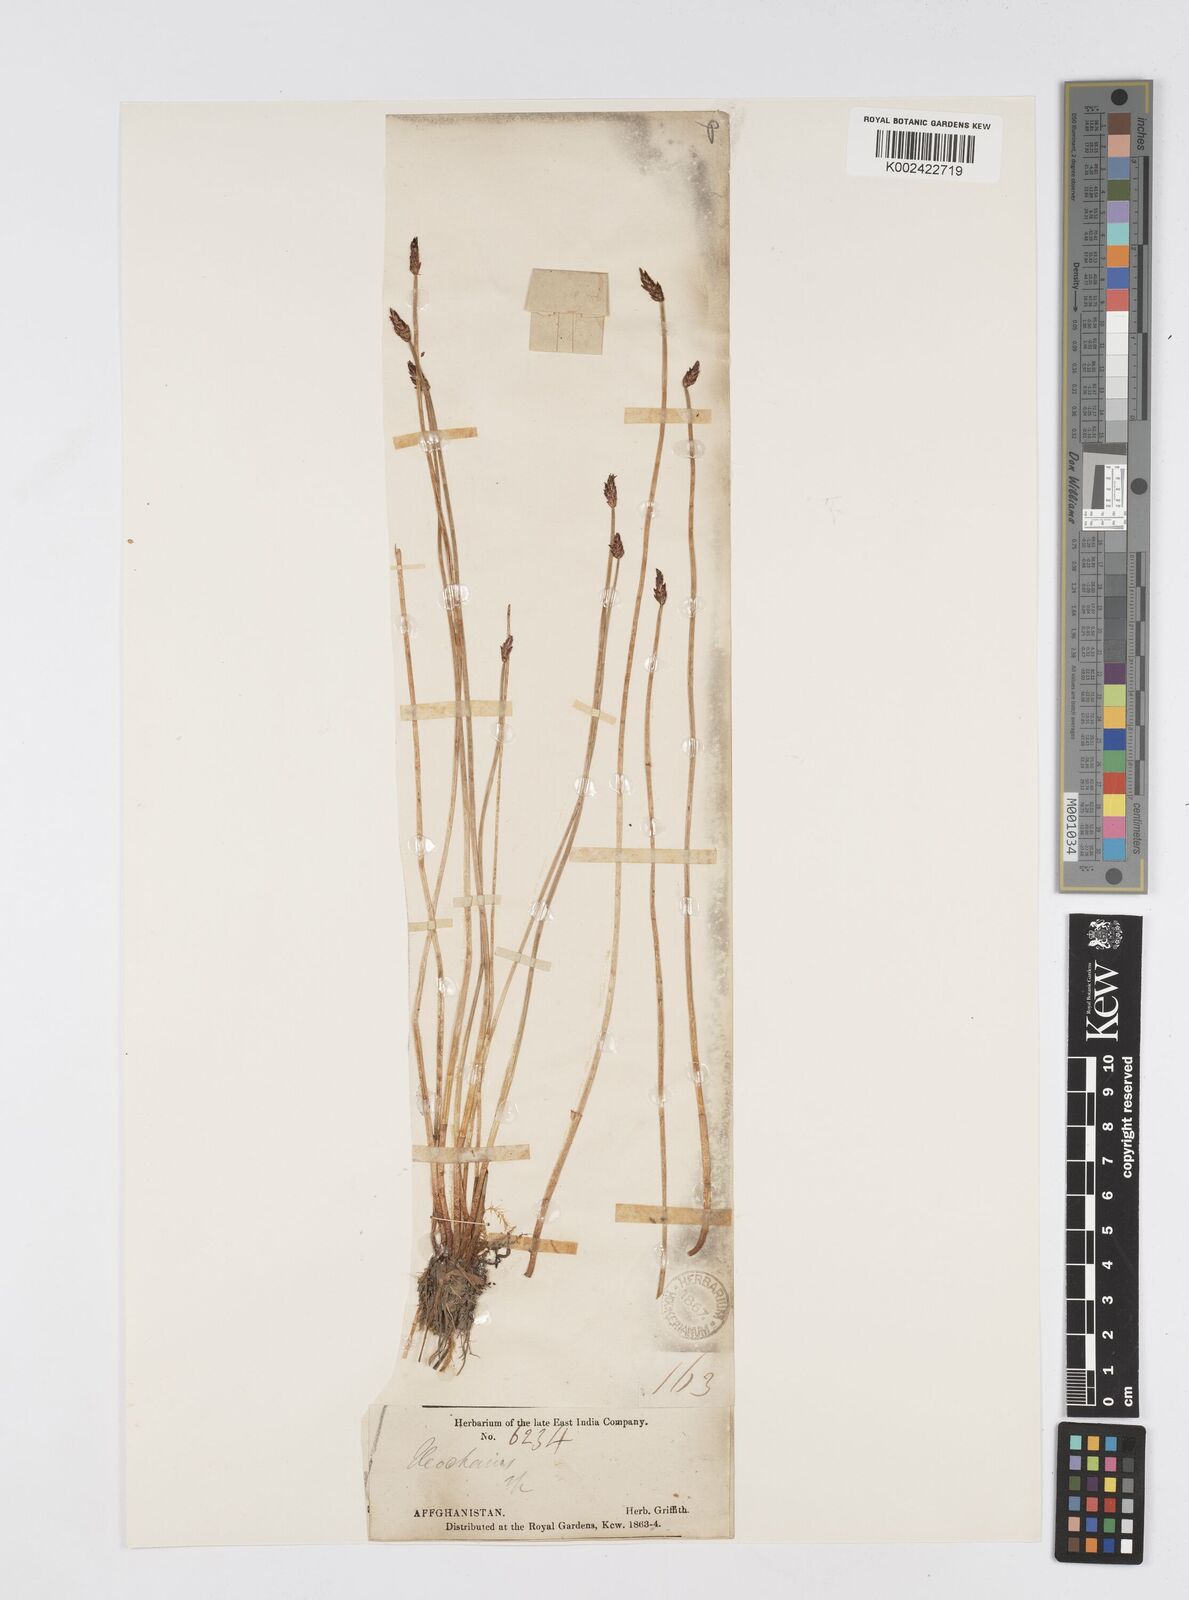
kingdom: Plantae
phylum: Tracheophyta
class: Liliopsida
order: Poales
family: Cyperaceae
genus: Eleocharis
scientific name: Eleocharis
